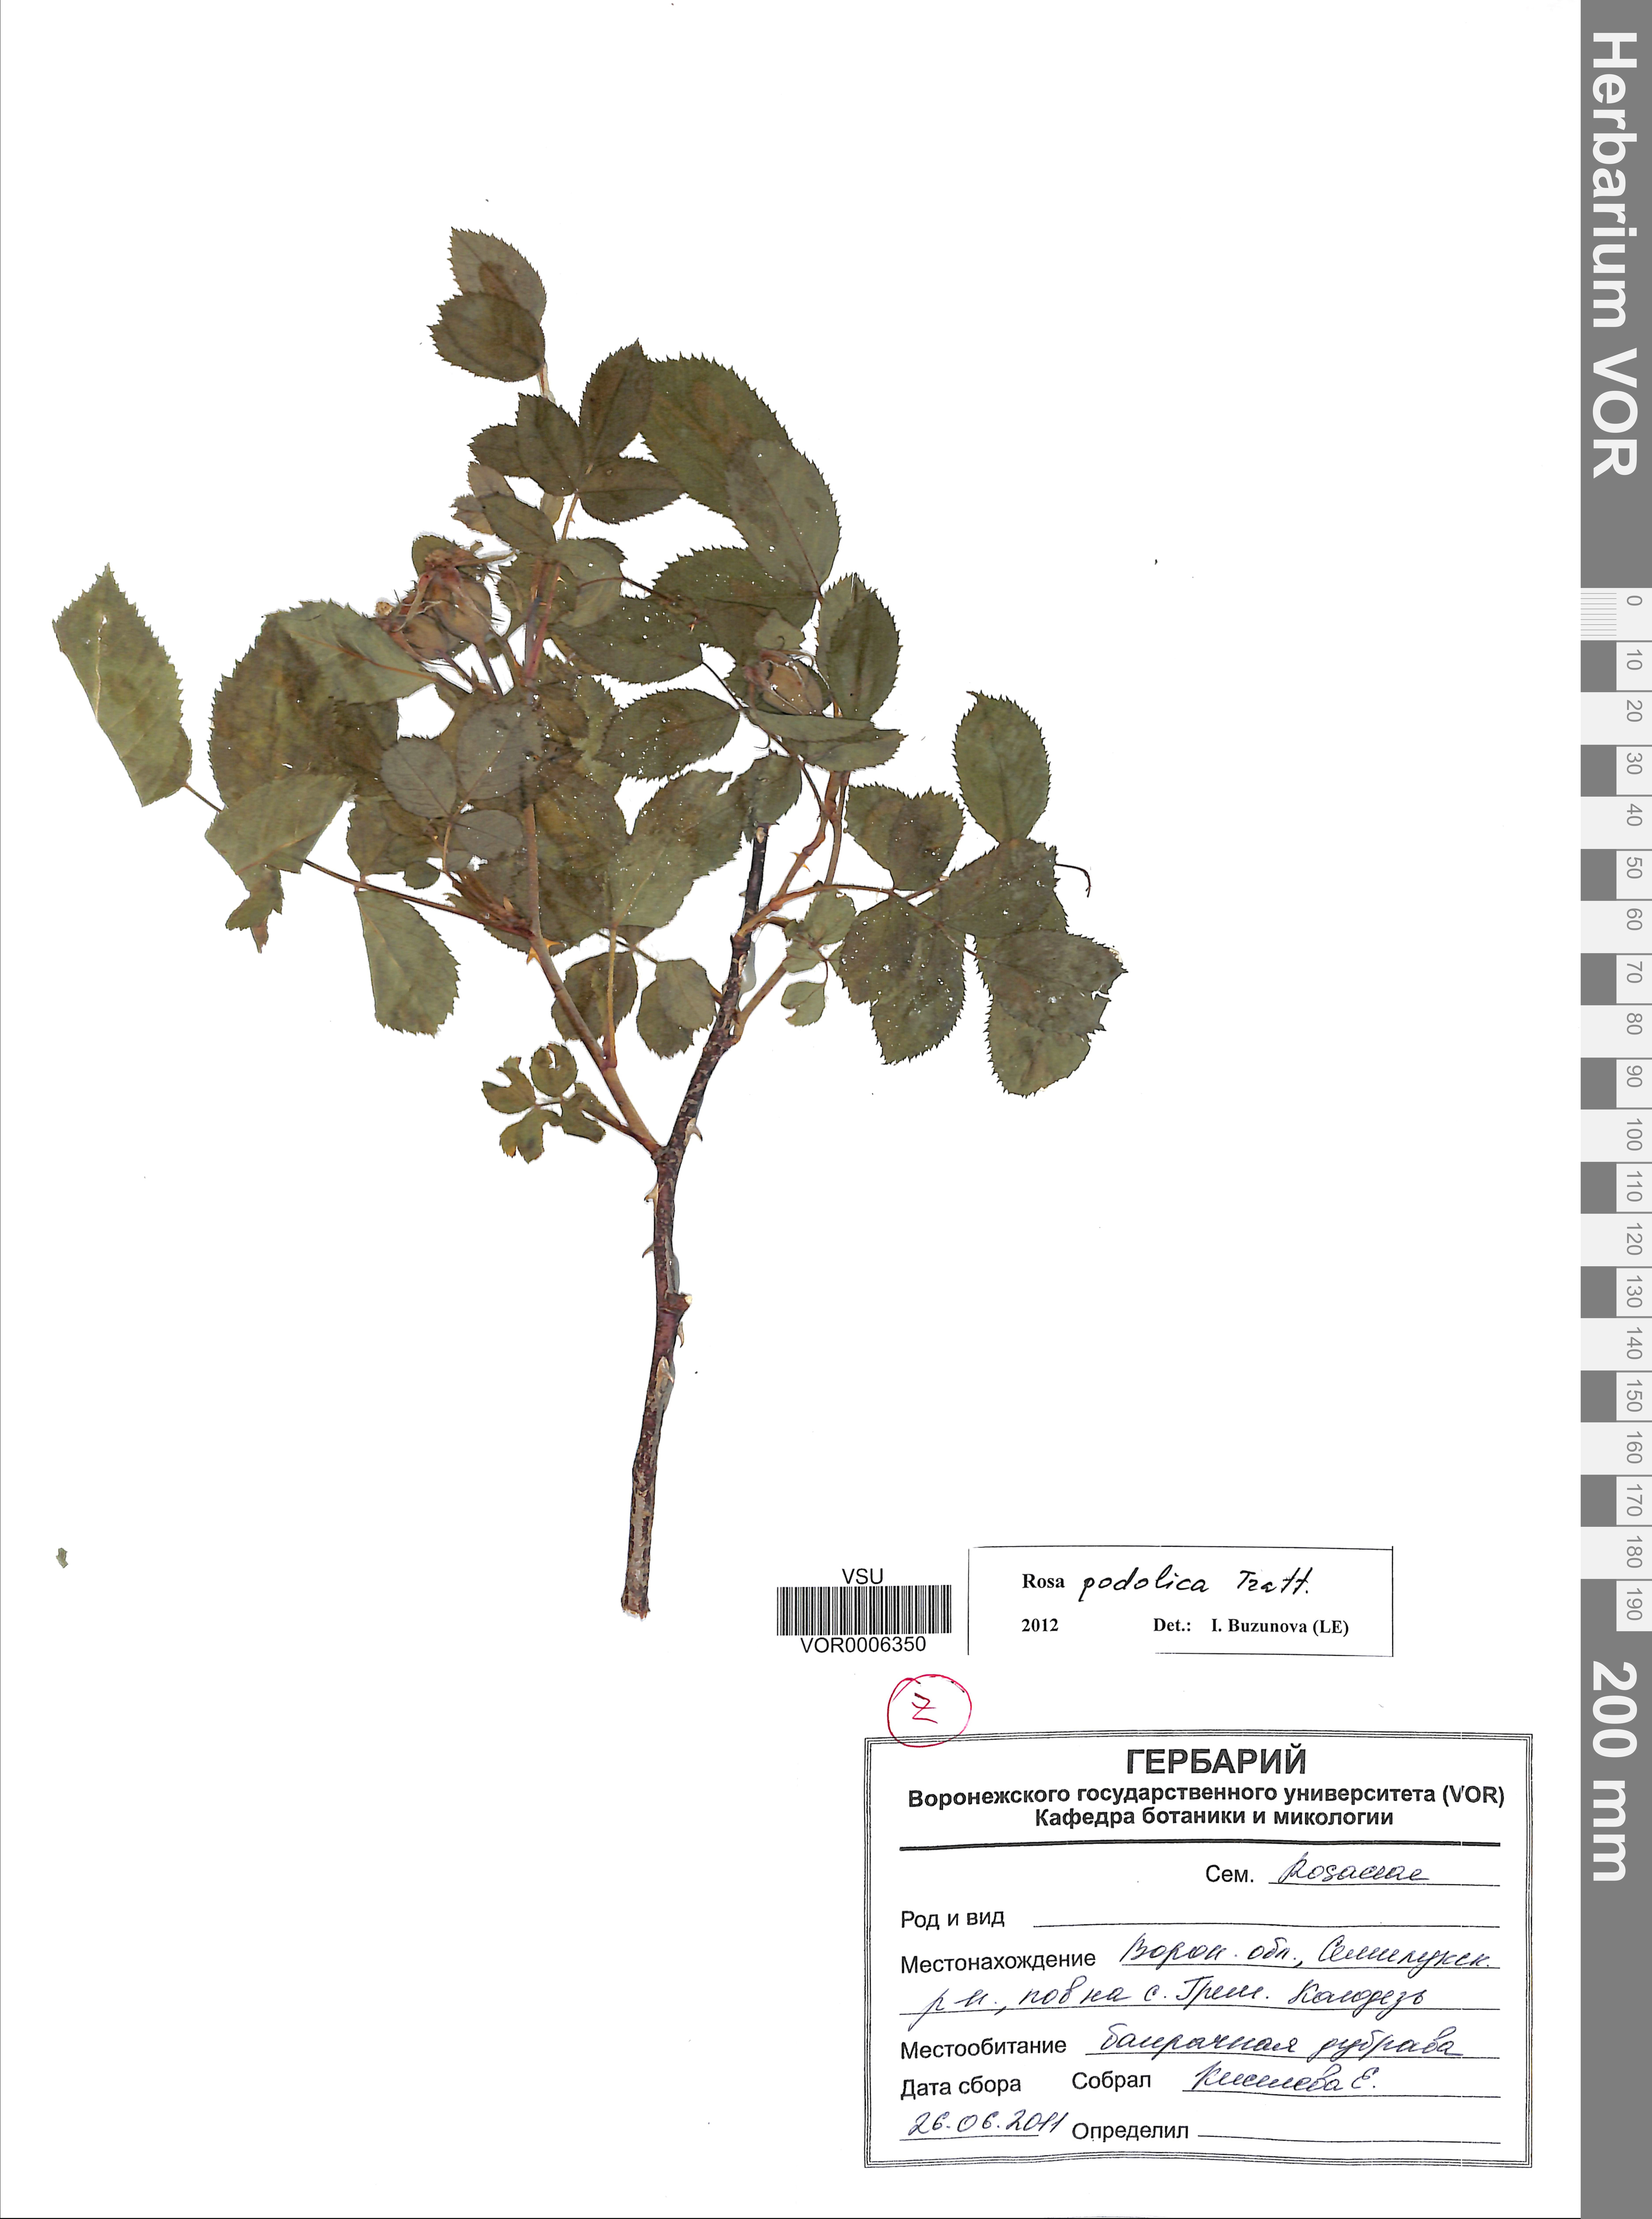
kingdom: Plantae
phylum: Tracheophyta
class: Magnoliopsida
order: Rosales
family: Rosaceae
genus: Rosa
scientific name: Rosa tomentosa
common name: Downy rose
